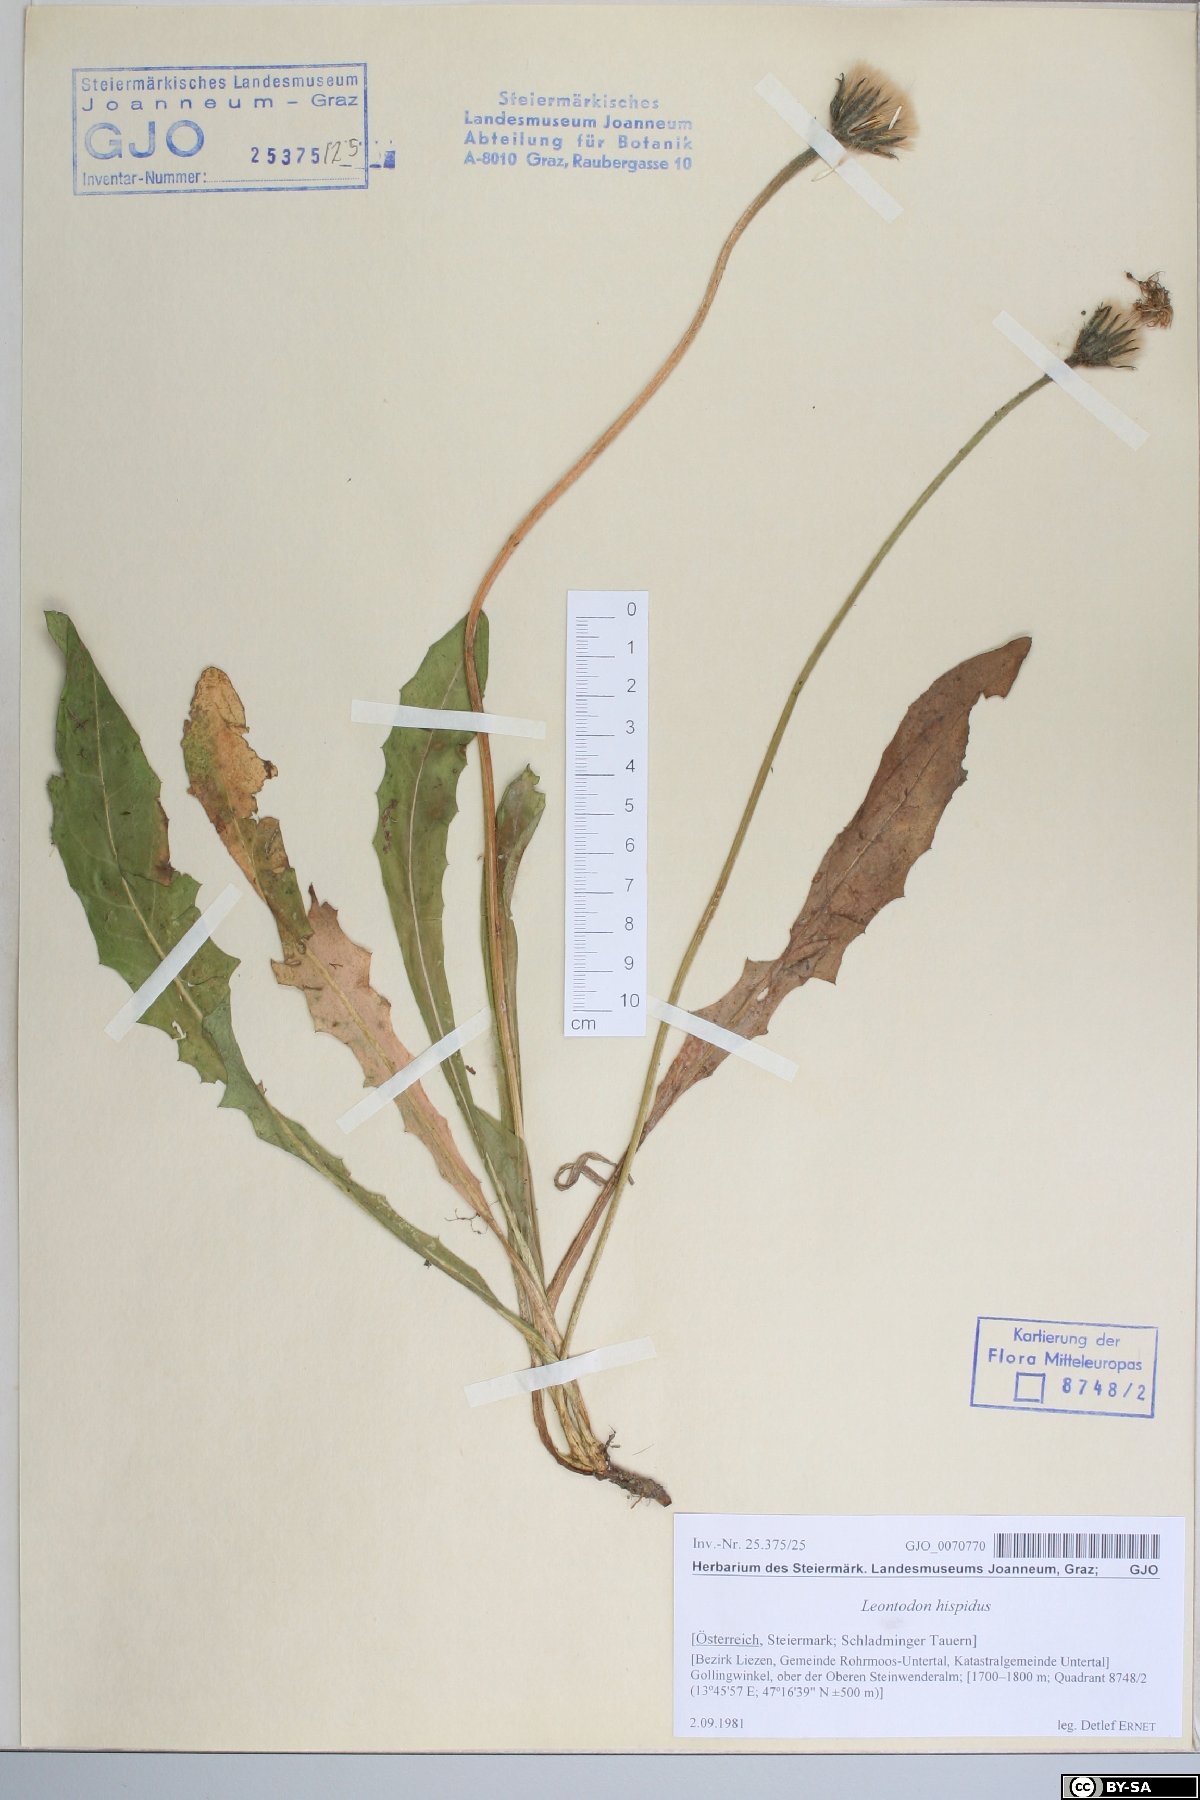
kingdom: Plantae
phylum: Tracheophyta
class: Magnoliopsida
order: Asterales
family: Asteraceae
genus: Leontodon
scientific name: Leontodon hispidus
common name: Rough hawkbit
